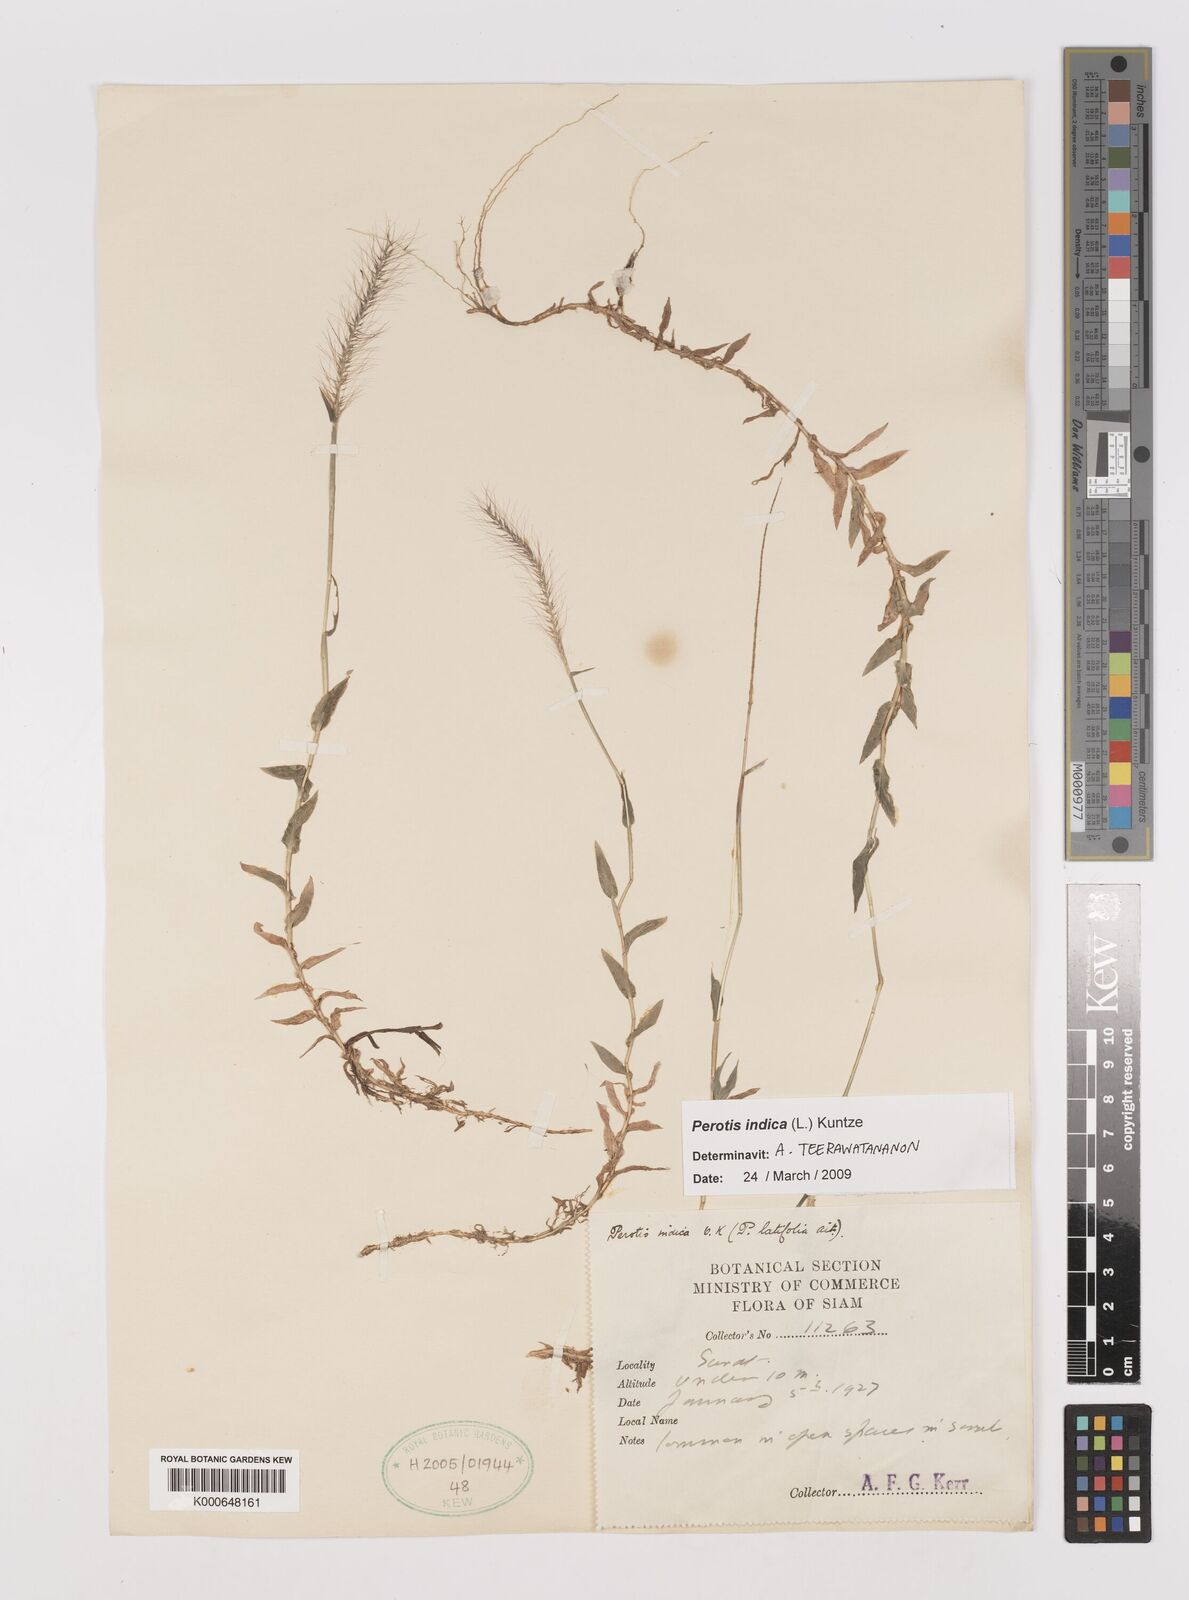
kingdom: Plantae
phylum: Tracheophyta
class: Liliopsida
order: Poales
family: Poaceae
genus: Perotis
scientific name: Perotis indica
